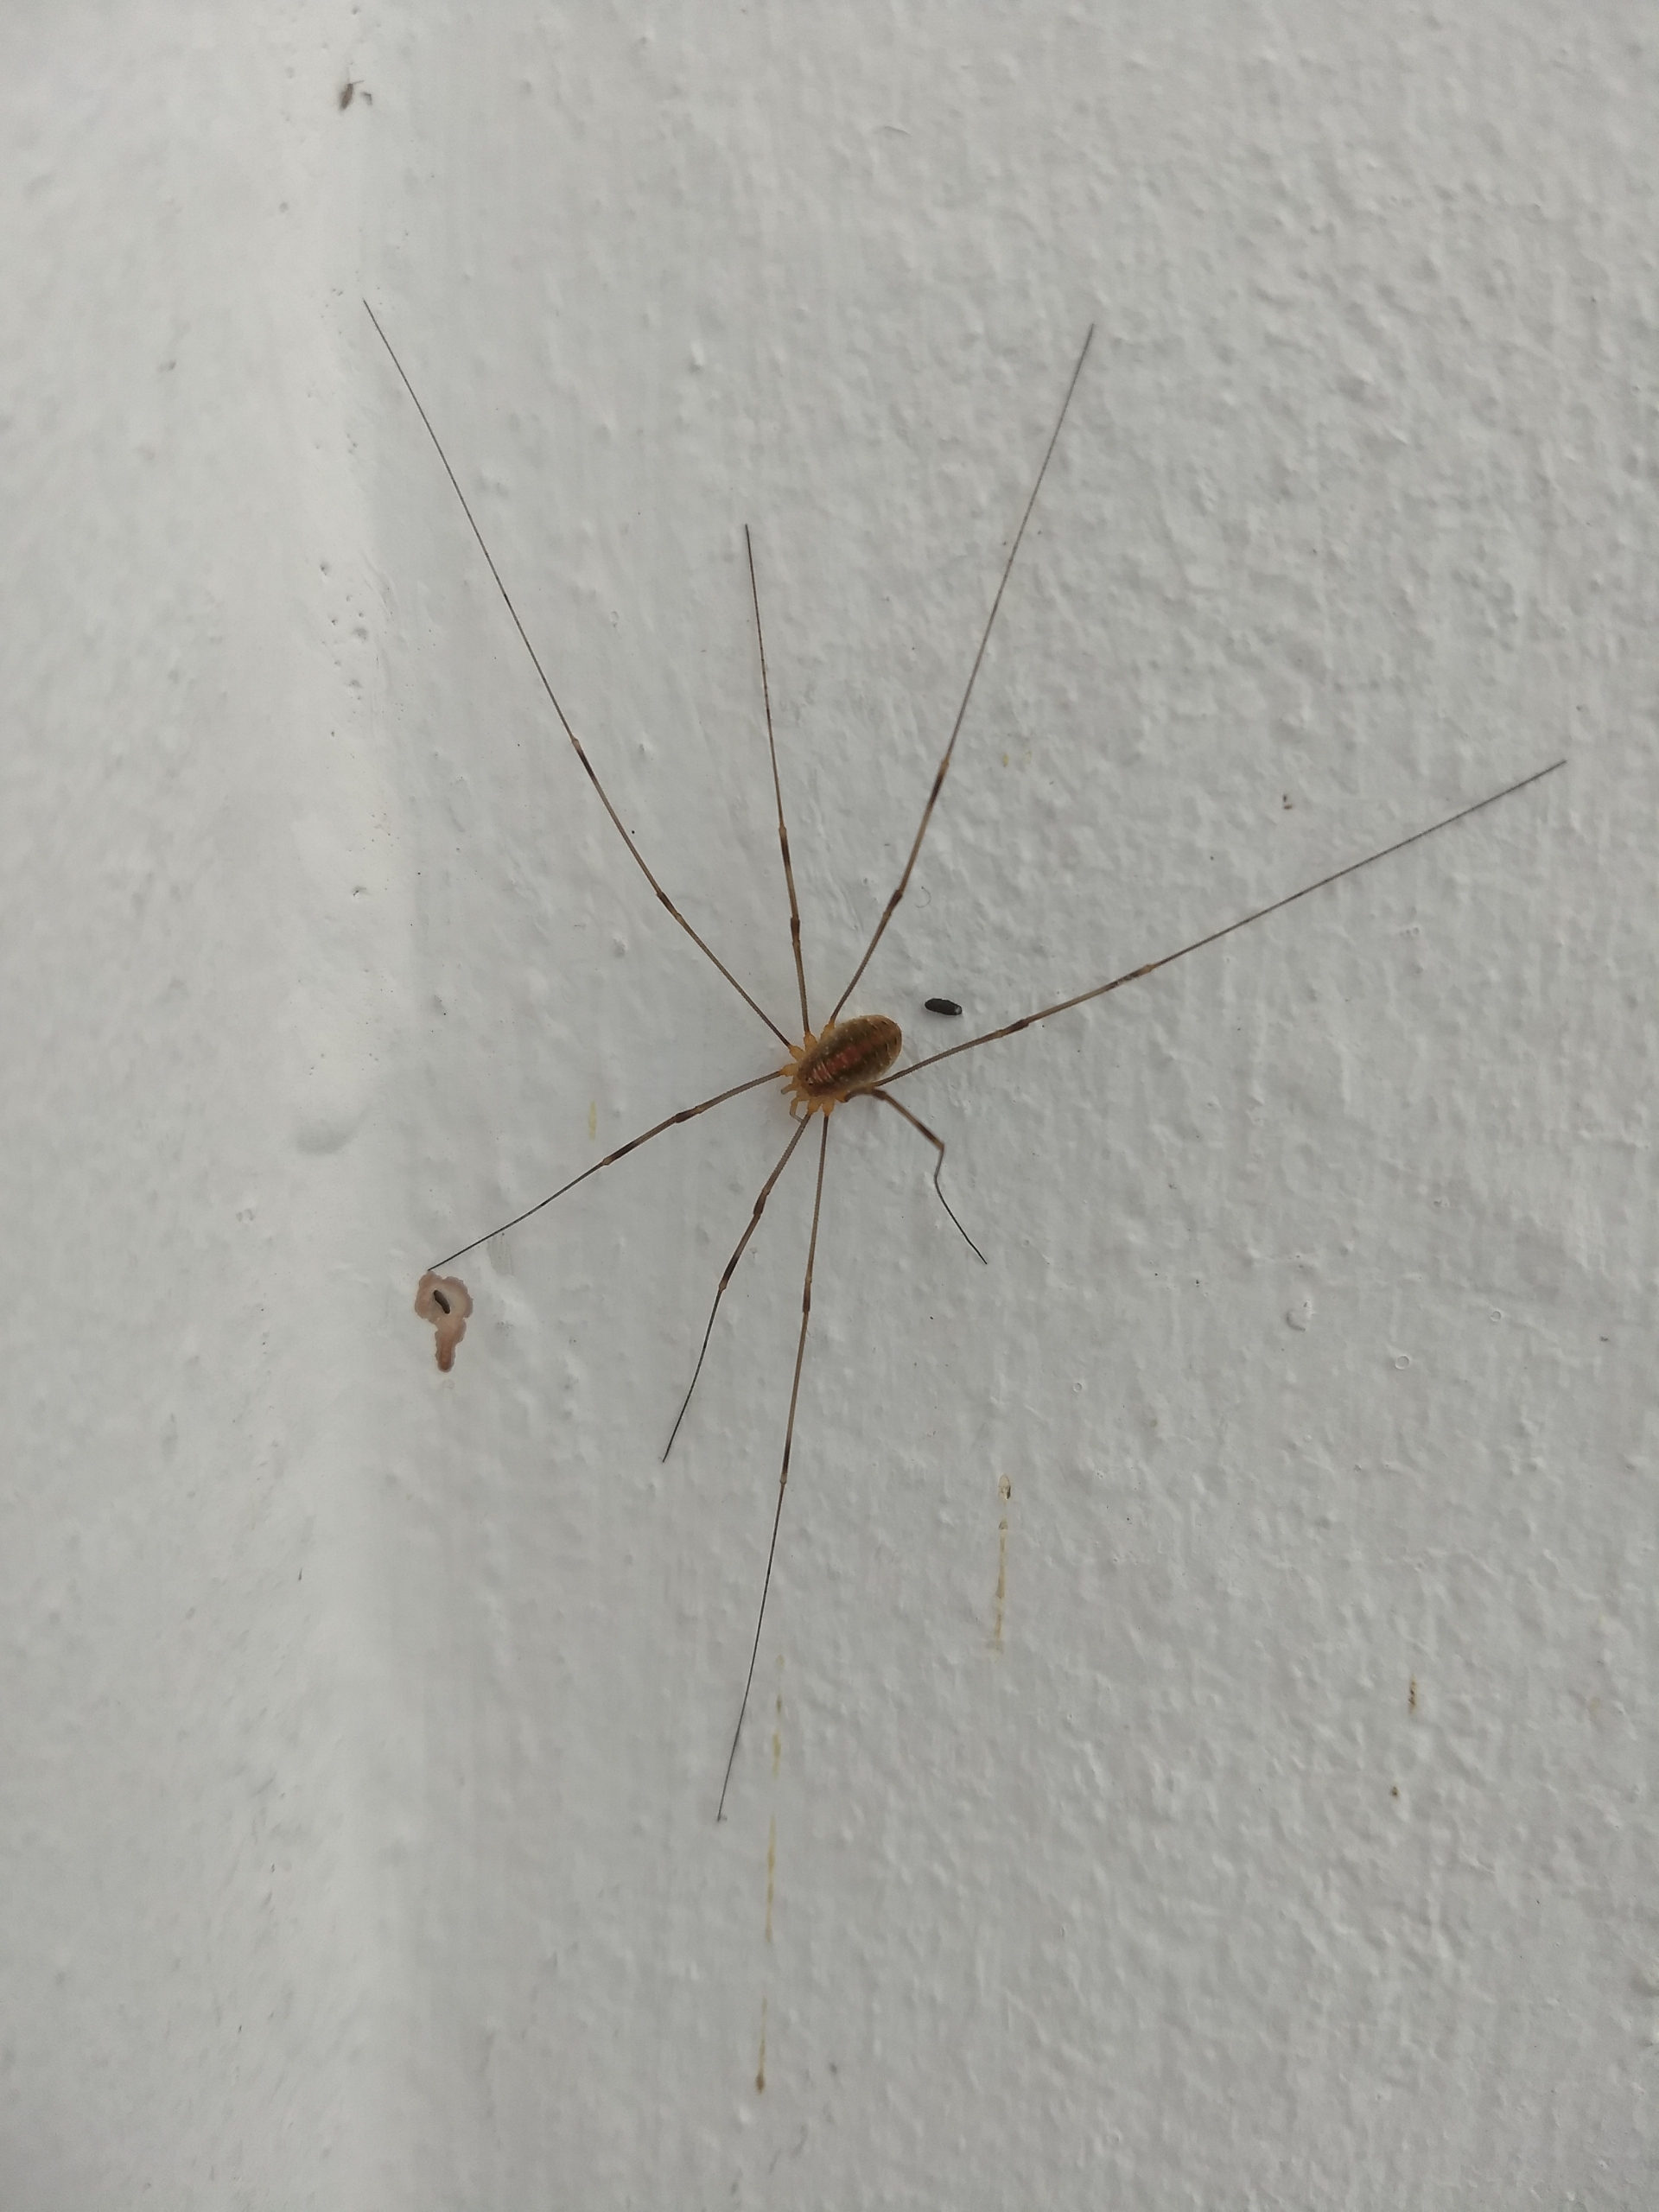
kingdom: Animalia
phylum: Arthropoda
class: Arachnida
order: Opiliones
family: Phalangiidae
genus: Opilio
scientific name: Opilio canestrinii
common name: Orange vægmejer
